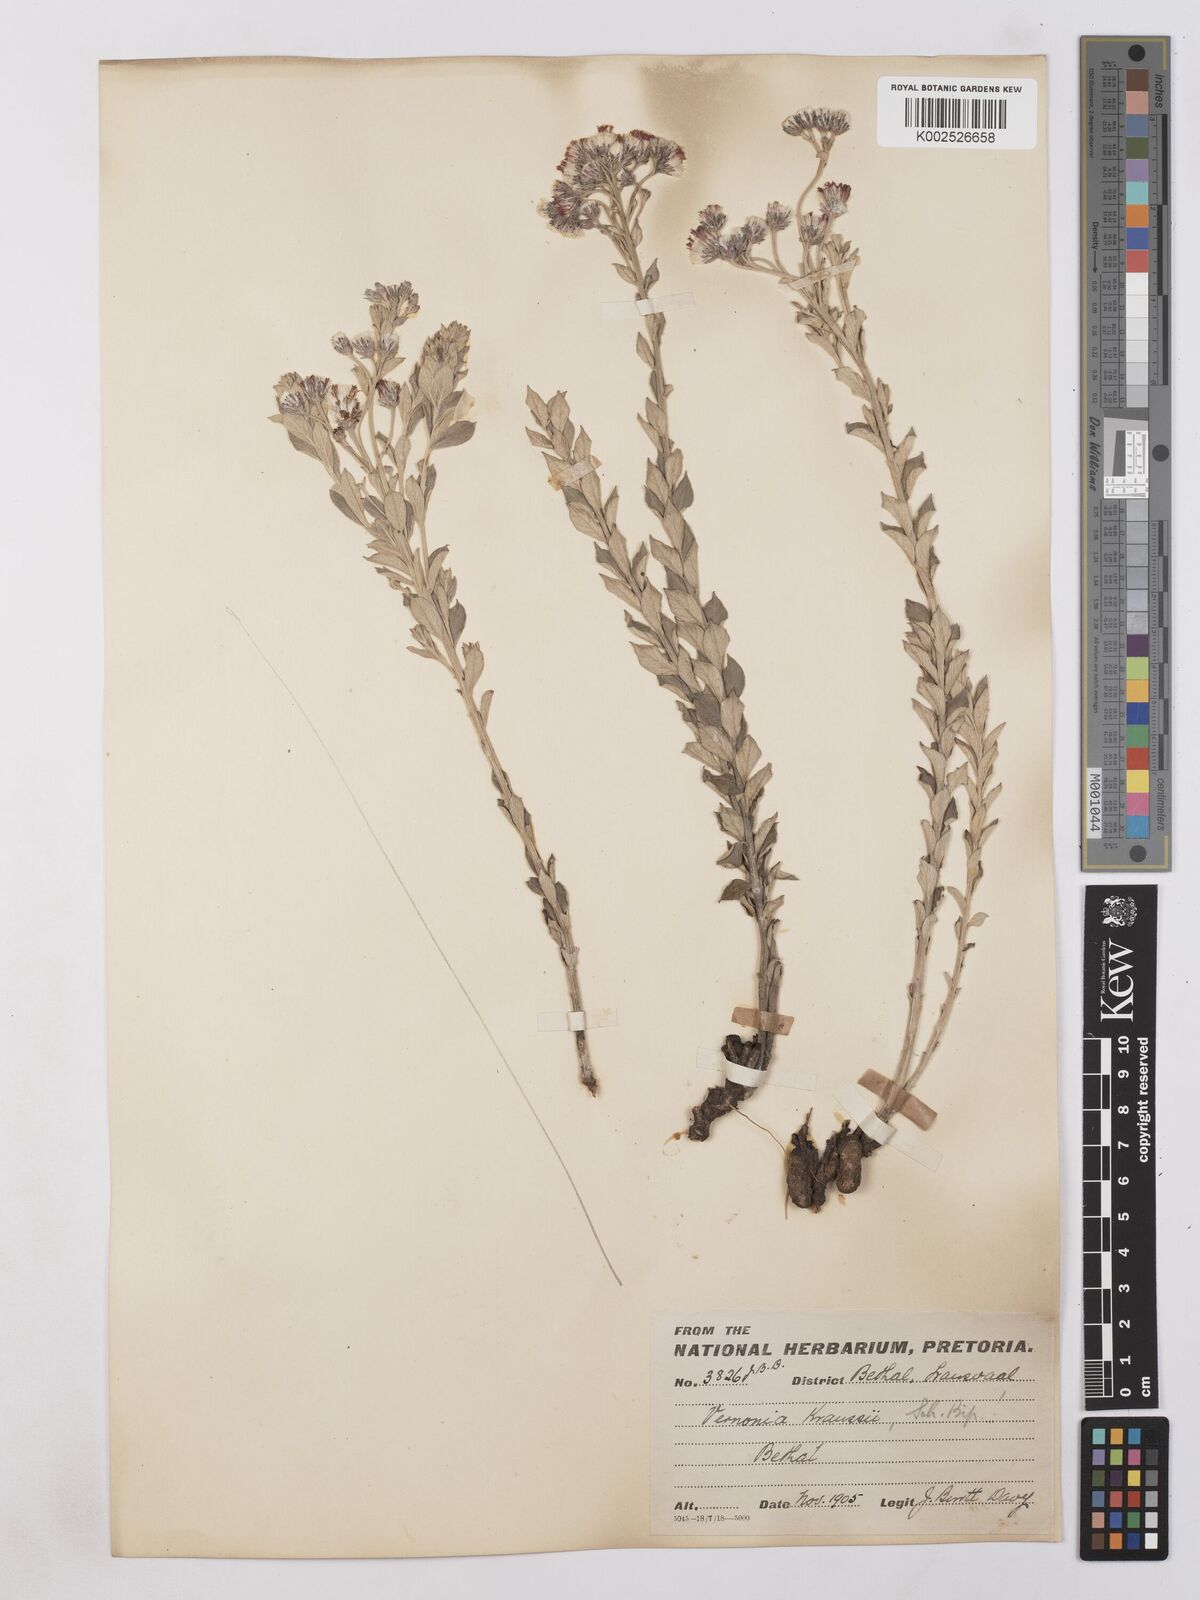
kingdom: Plantae
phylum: Tracheophyta
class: Magnoliopsida
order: Asterales
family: Asteraceae
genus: Hilliardiella
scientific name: Hilliardiella oligocephala
